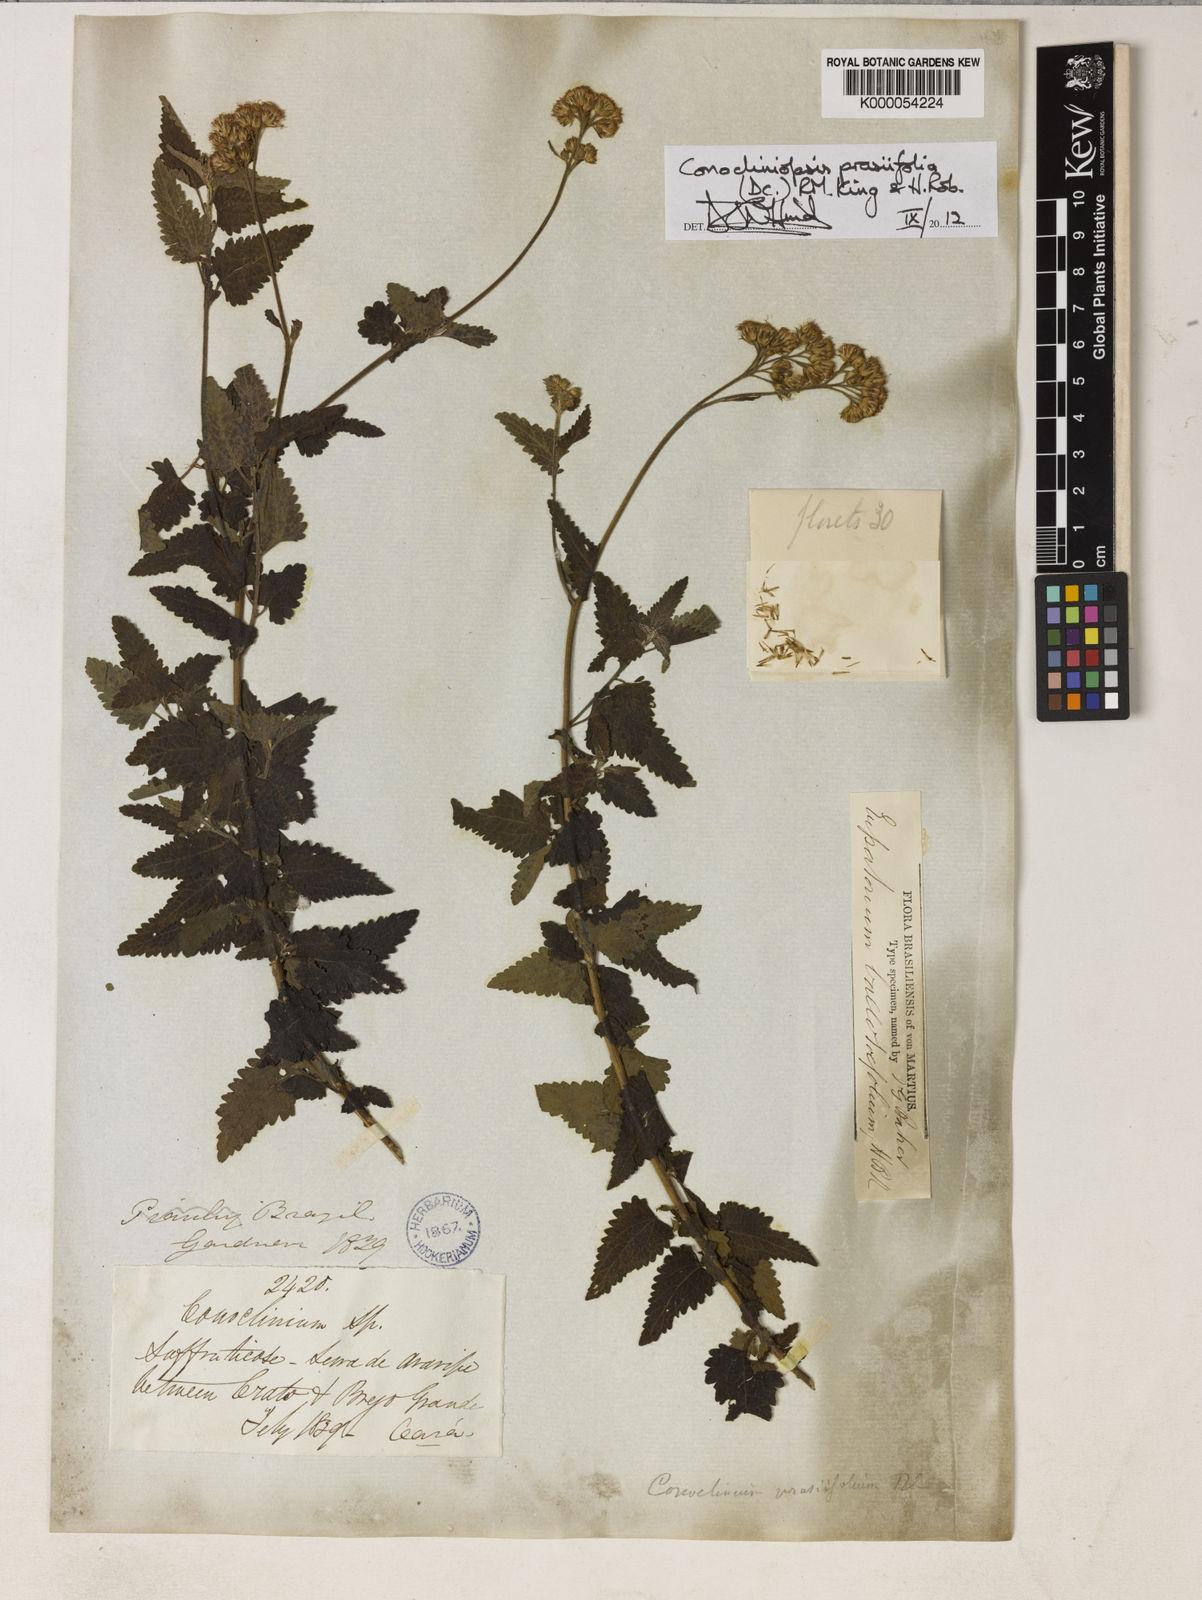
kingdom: Plantae
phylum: Tracheophyta
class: Magnoliopsida
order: Asterales
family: Asteraceae
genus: Conocliniopsis
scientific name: Conocliniopsis grossedentata
